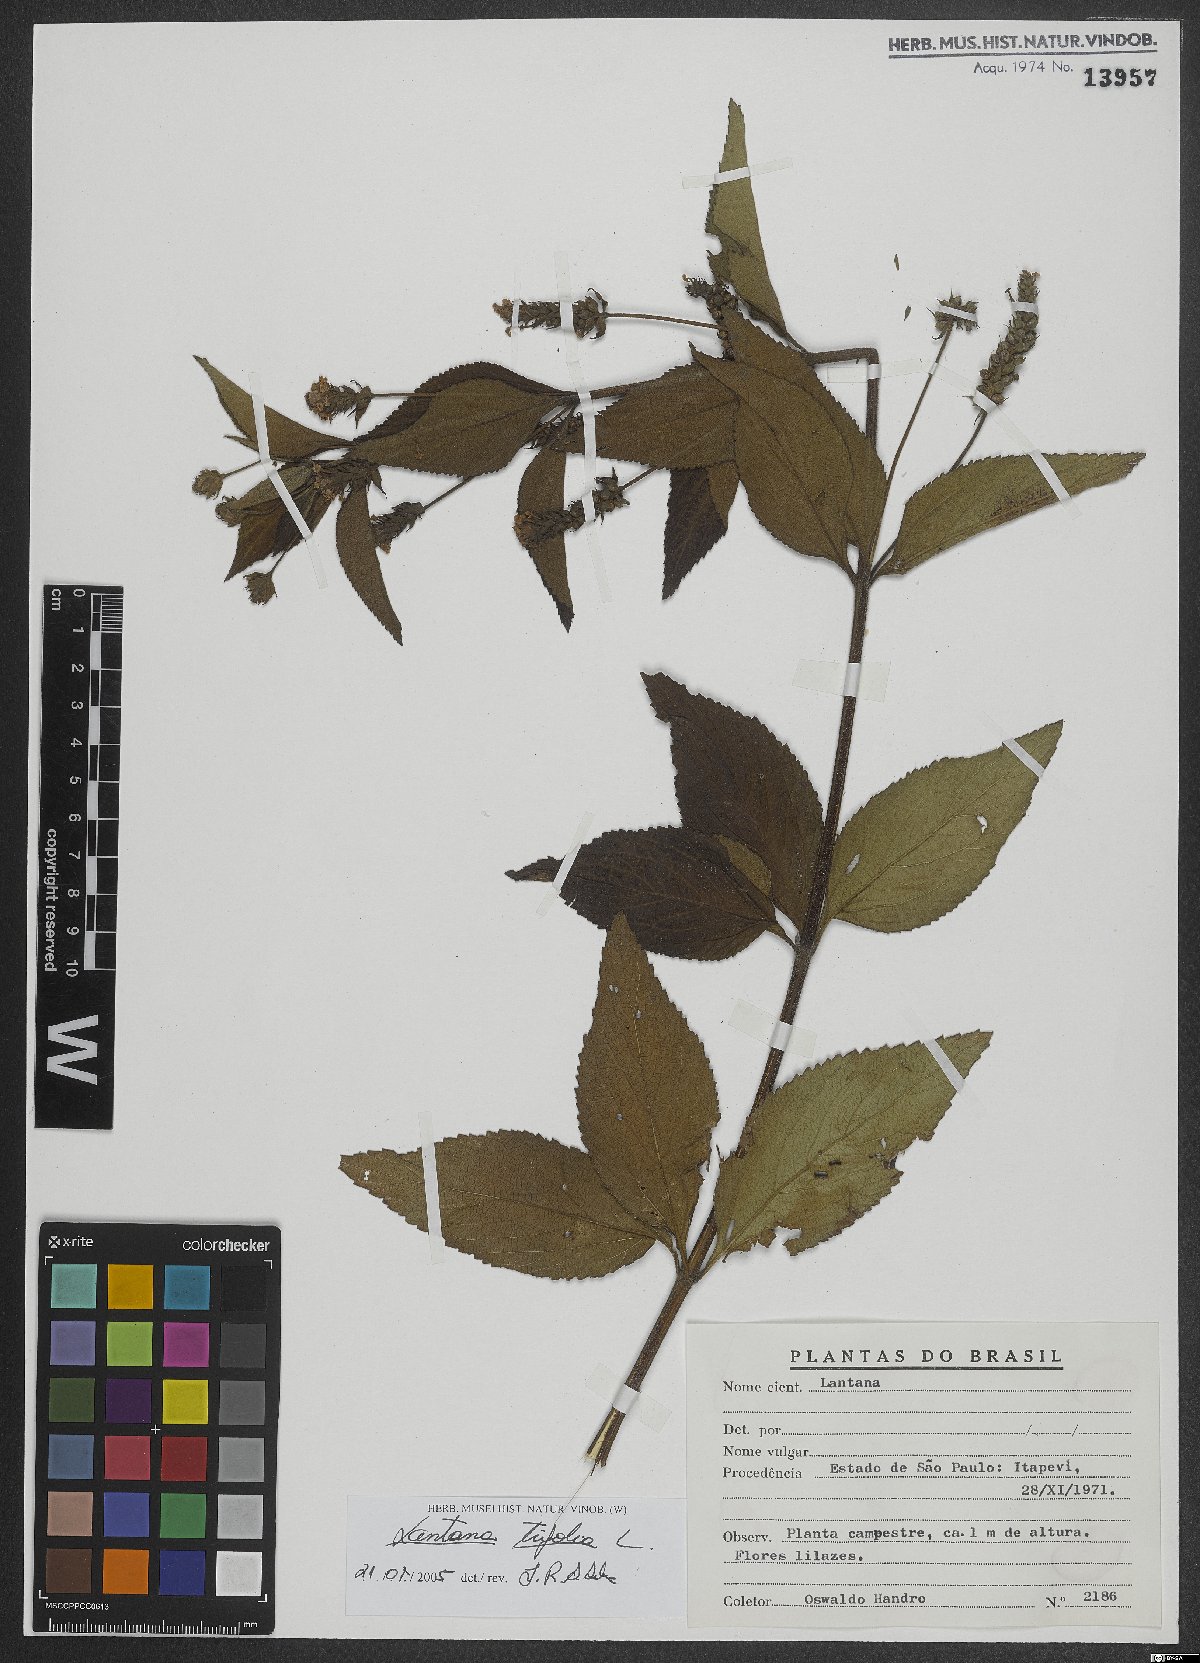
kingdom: Plantae
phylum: Tracheophyta
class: Magnoliopsida
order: Lamiales
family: Verbenaceae
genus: Lantana
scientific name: Lantana trifolia
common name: Sweet-sage
